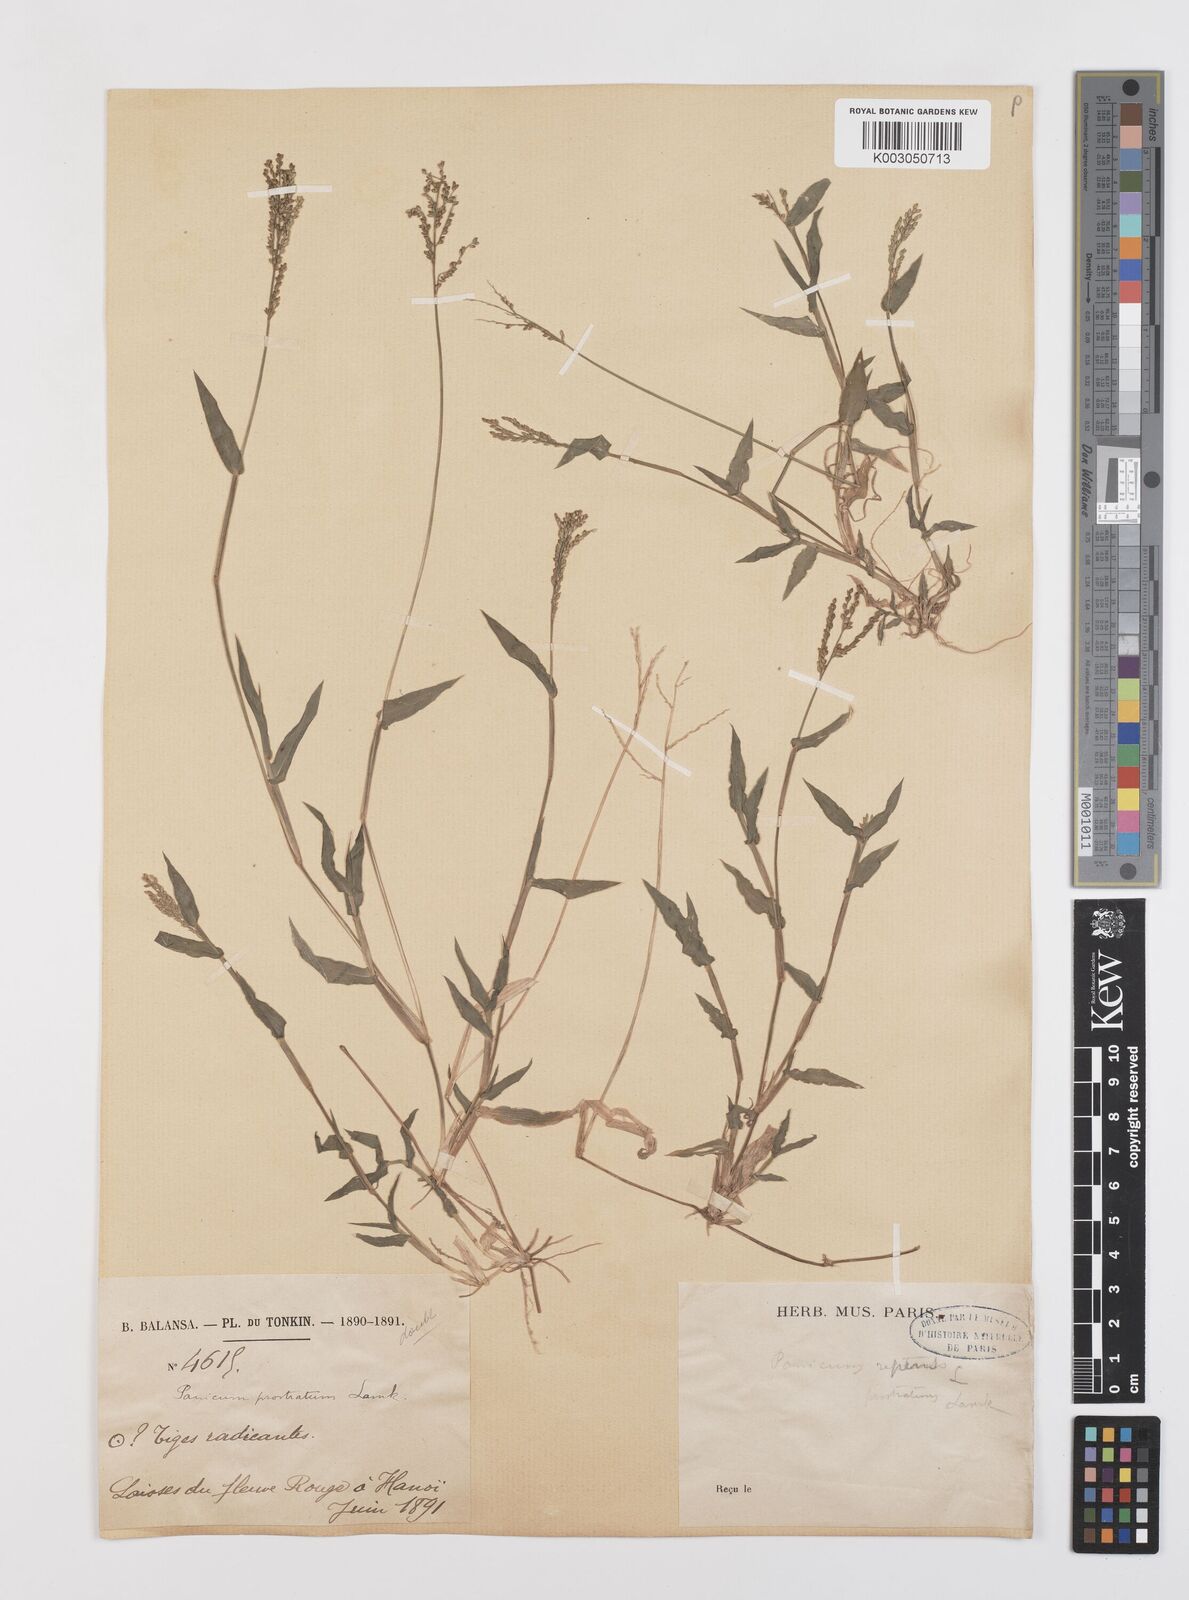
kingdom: Plantae
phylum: Tracheophyta
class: Liliopsida
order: Poales
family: Poaceae
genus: Urochloa
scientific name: Urochloa reptans
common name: Sprawling signalgrass
